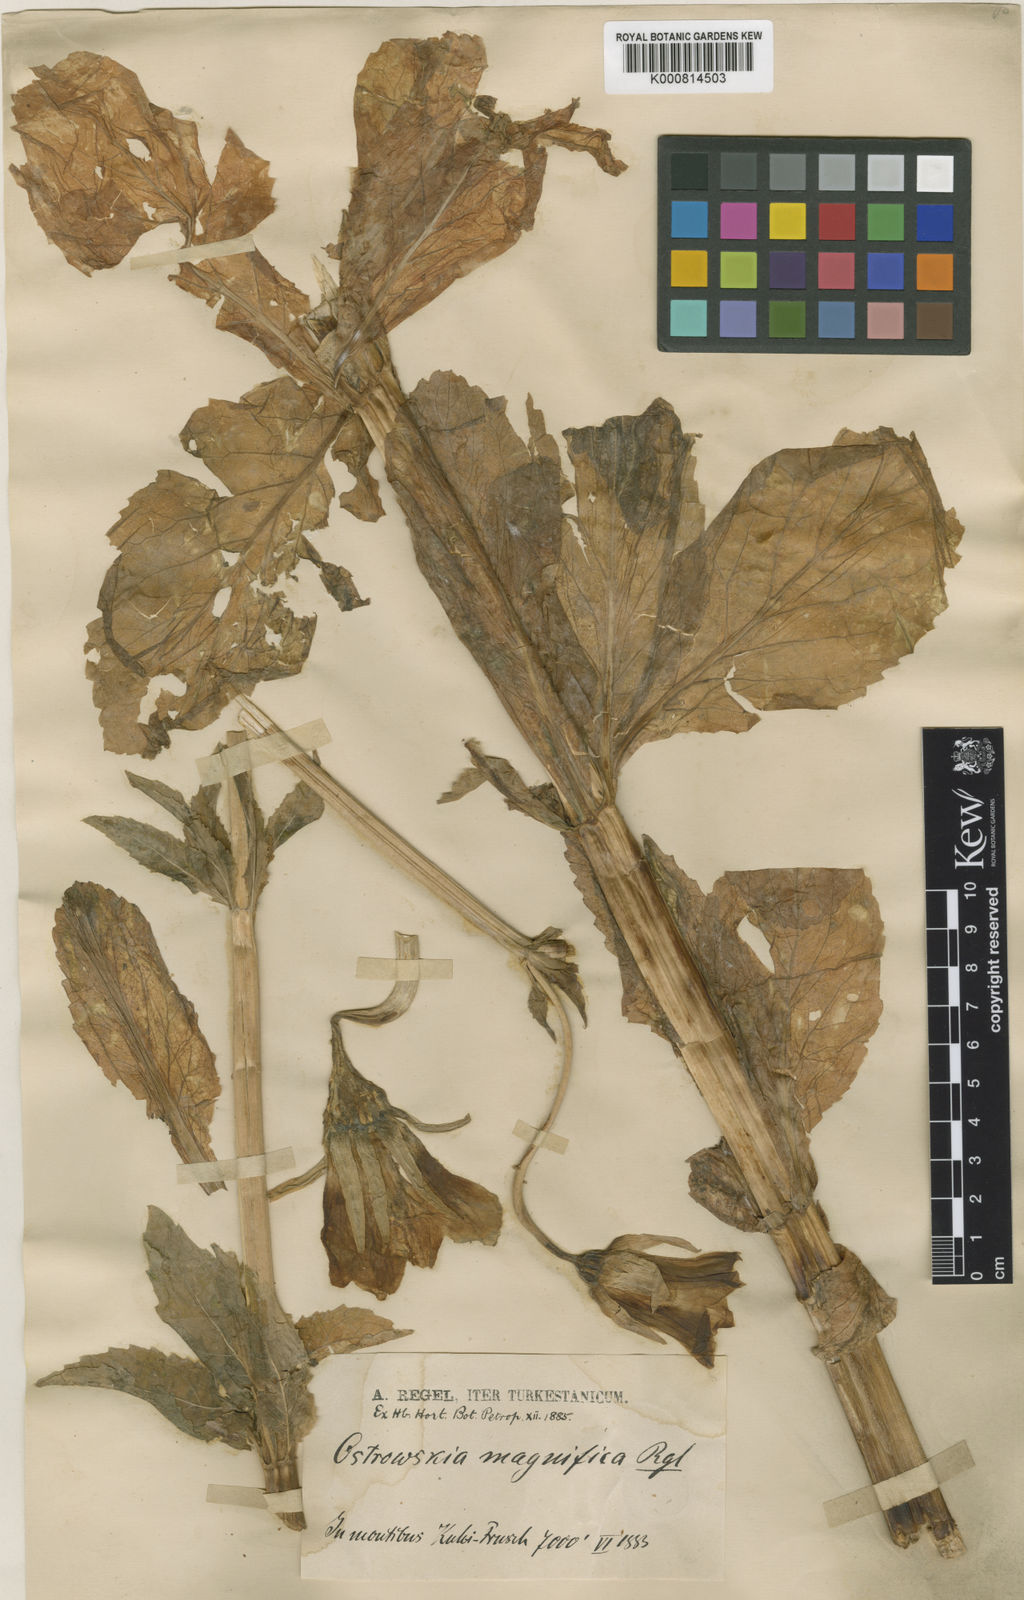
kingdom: Plantae
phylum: Tracheophyta
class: Magnoliopsida
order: Asterales
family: Campanulaceae
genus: Ostrowskia
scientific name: Ostrowskia magnifica
